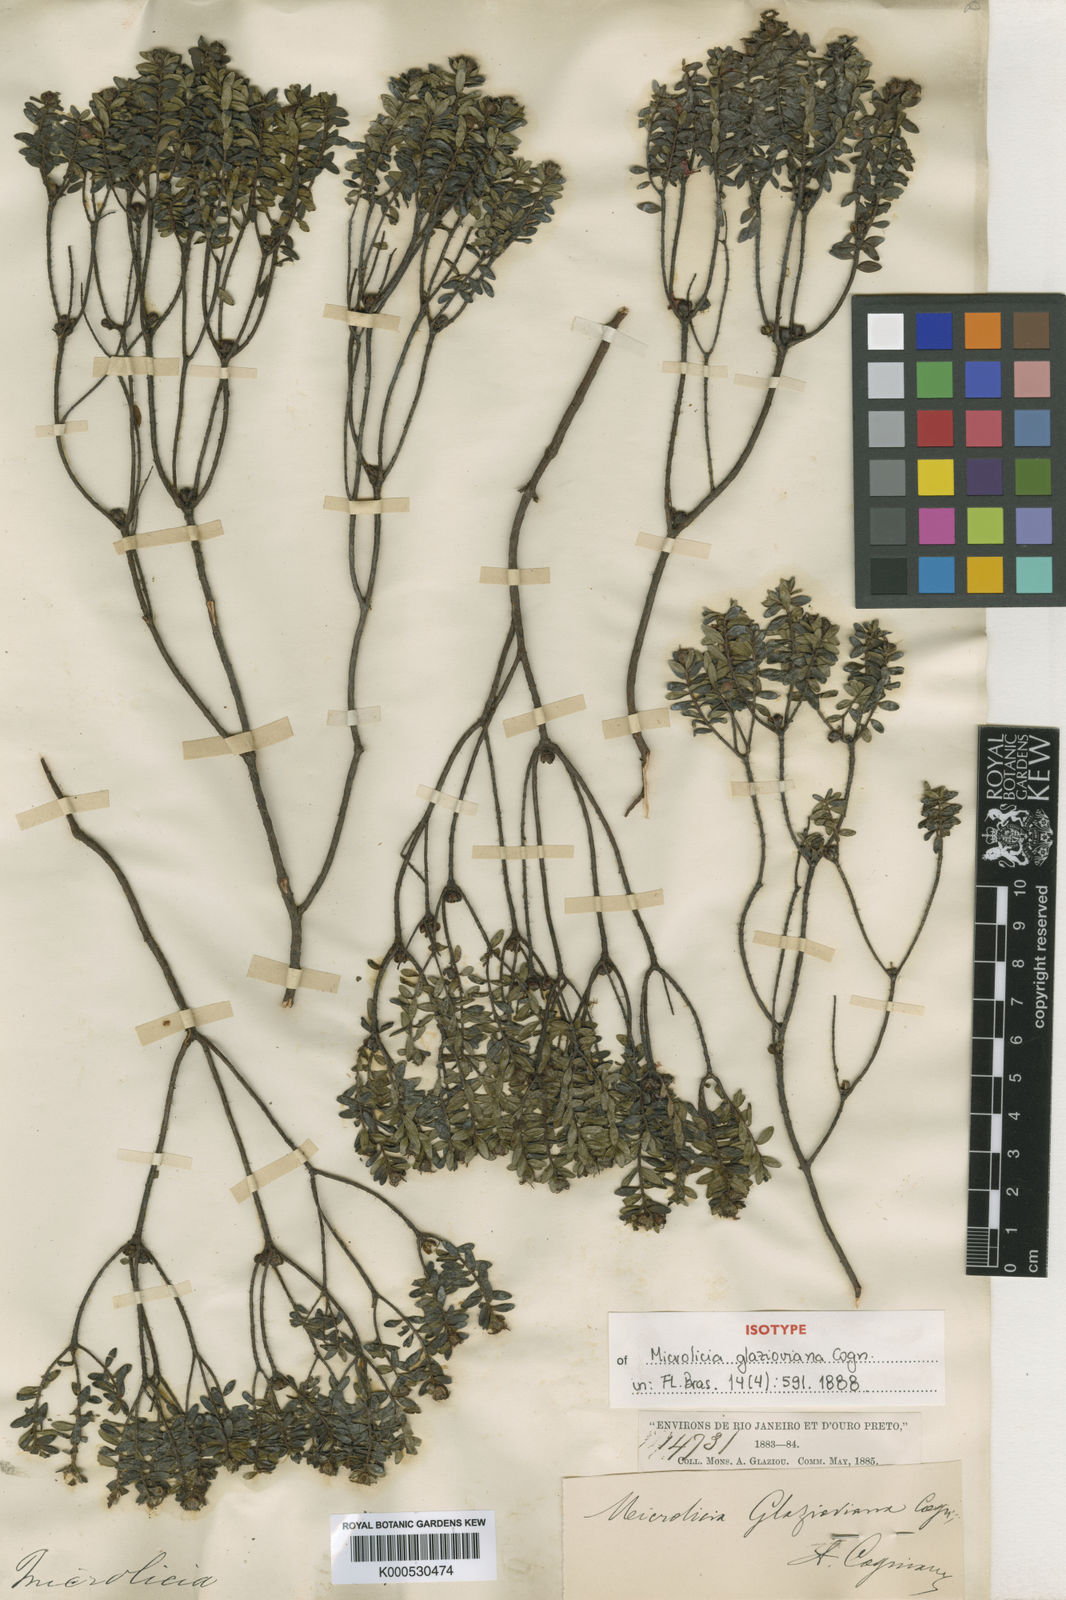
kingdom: Plantae
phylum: Tracheophyta
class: Magnoliopsida
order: Myrtales
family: Melastomataceae
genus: Microlicia
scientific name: Microlicia glazioviana
